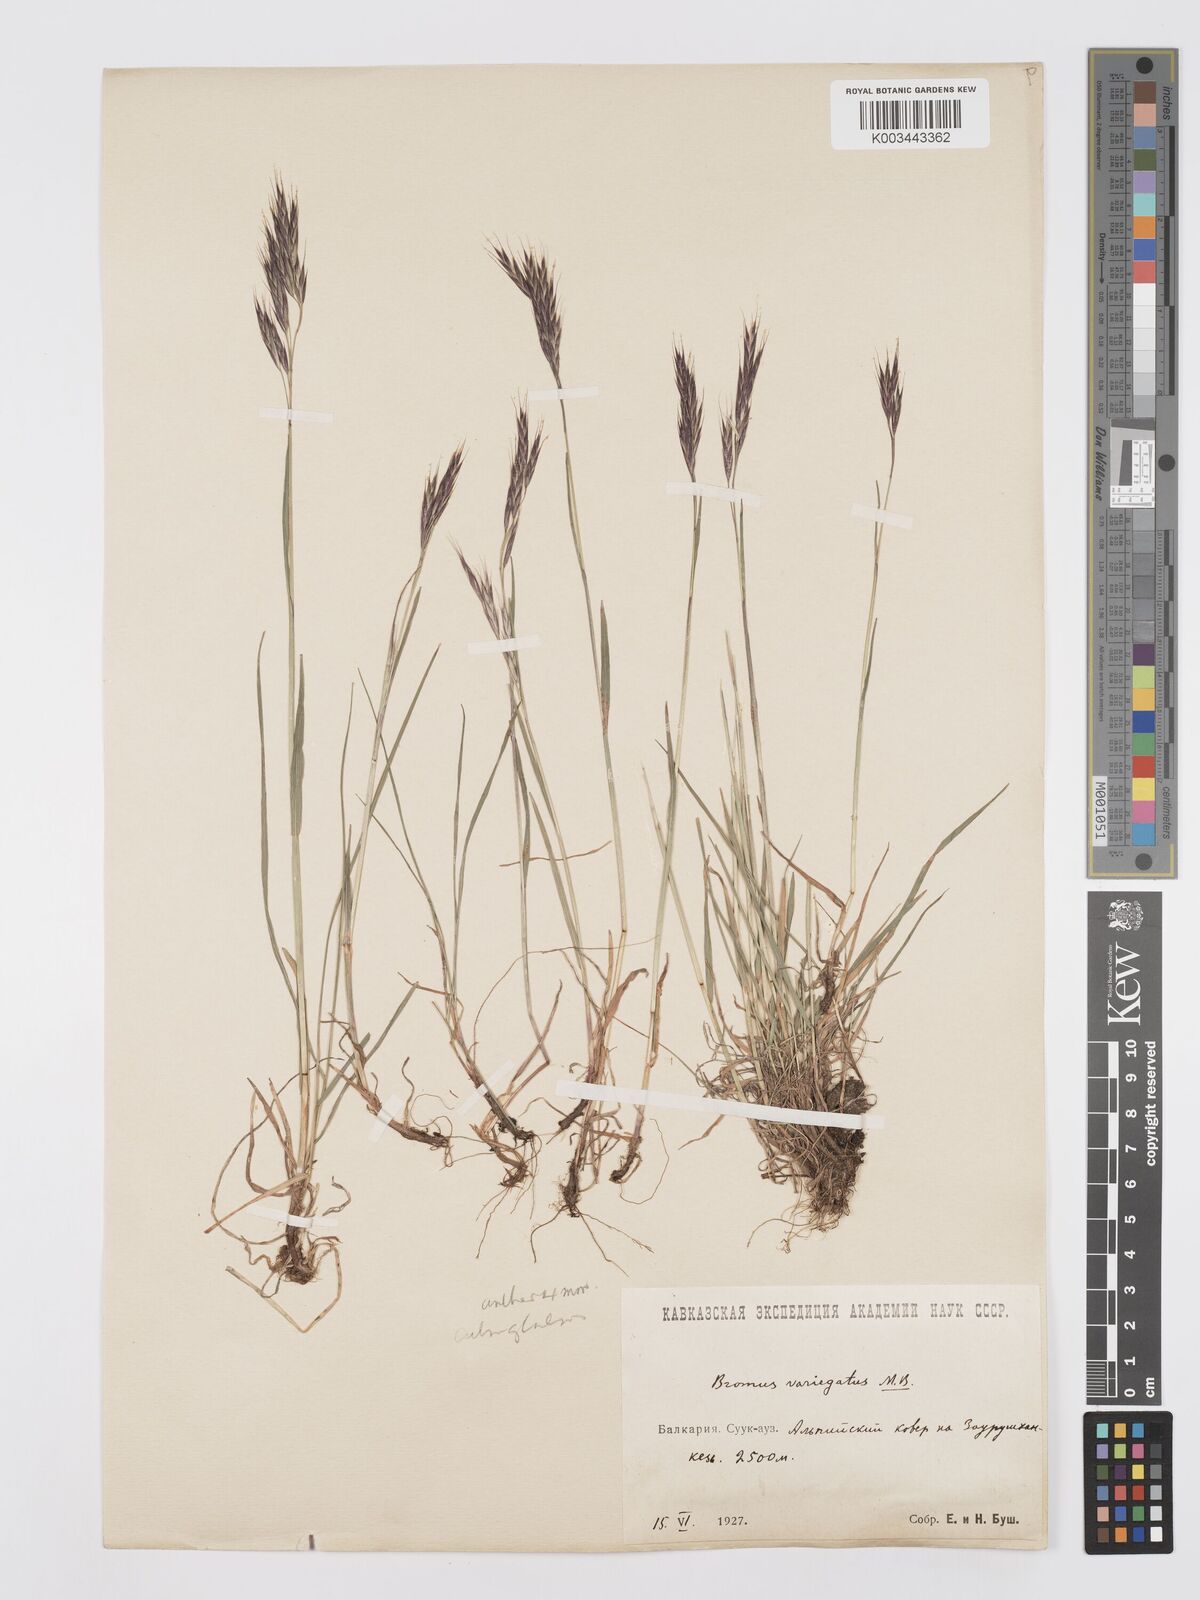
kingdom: Plantae
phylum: Tracheophyta
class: Liliopsida
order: Poales
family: Poaceae
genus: Bromus
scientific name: Bromus variegatus
